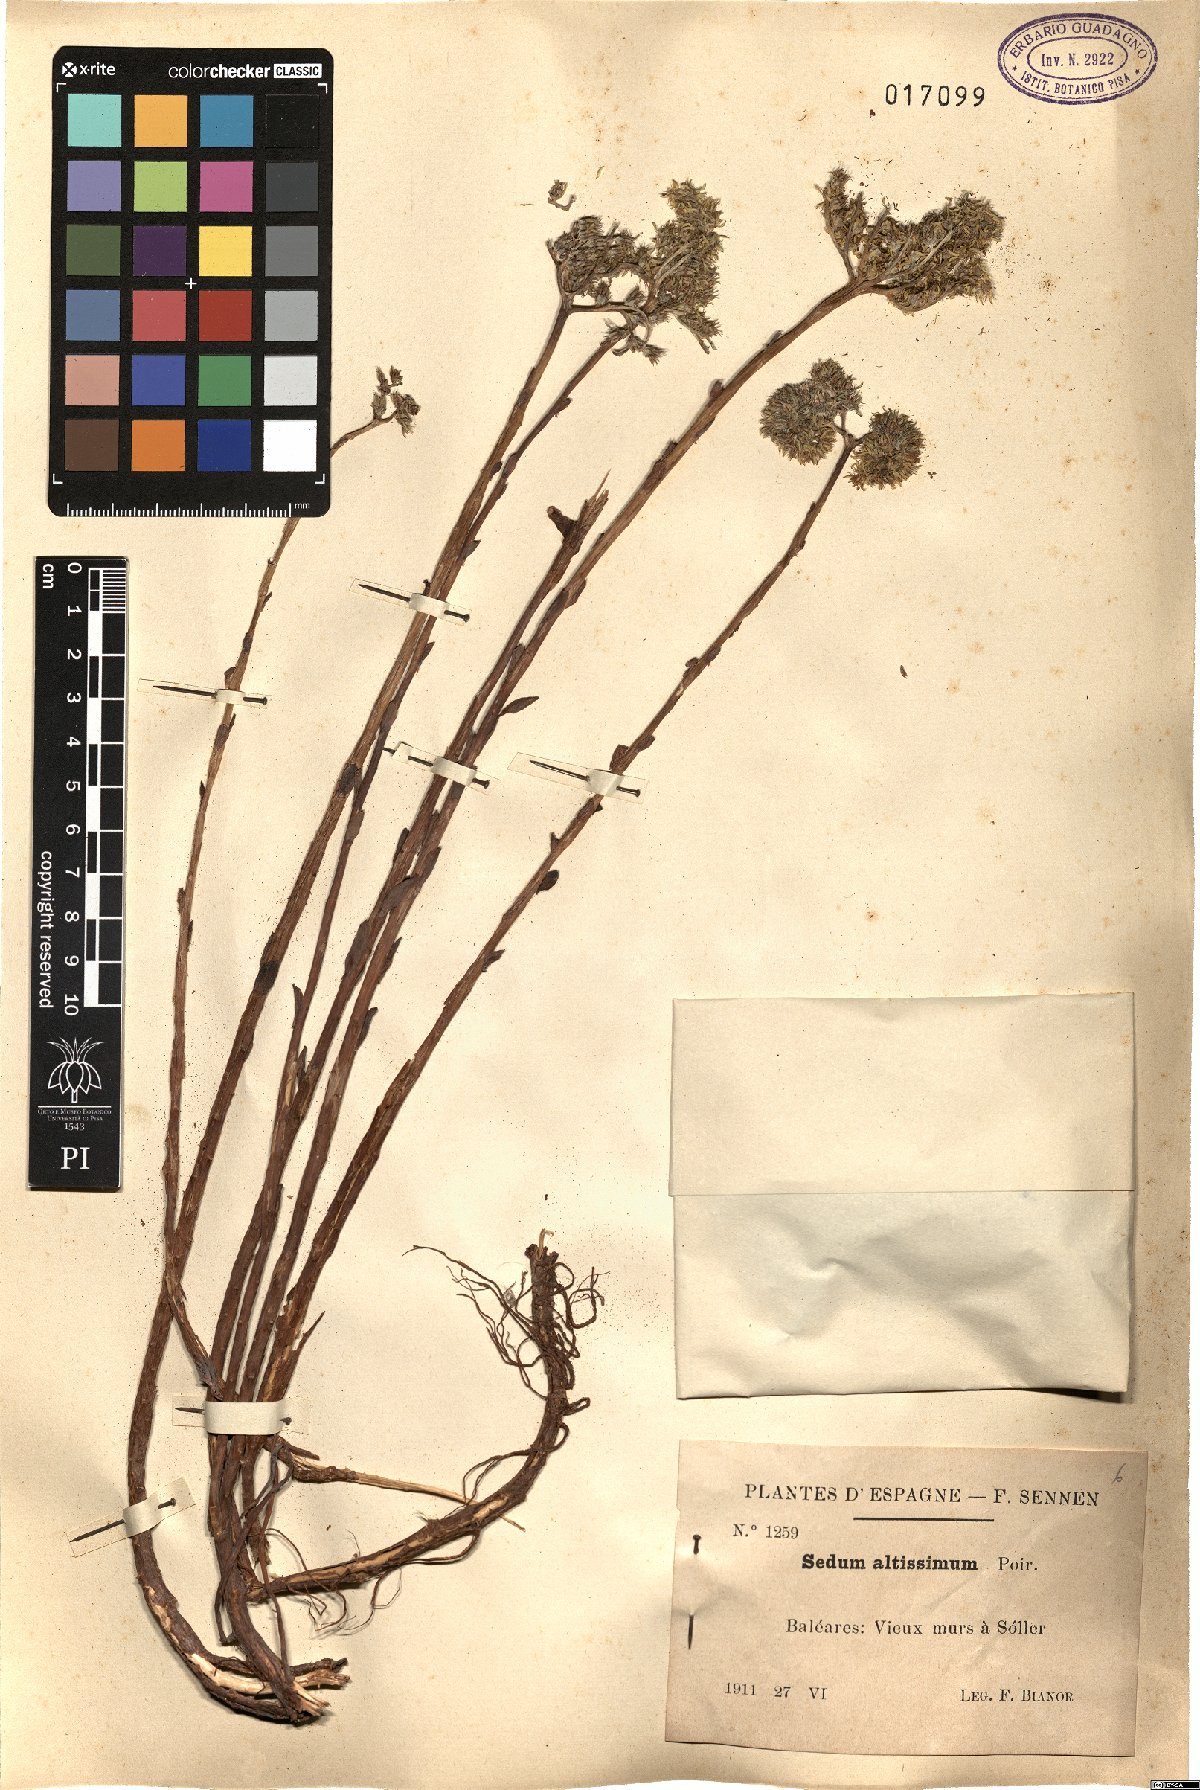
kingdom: Plantae
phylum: Tracheophyta
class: Magnoliopsida
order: Saxifragales
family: Crassulaceae
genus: Petrosedum
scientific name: Petrosedum sediforme
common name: Pale stonecrop
